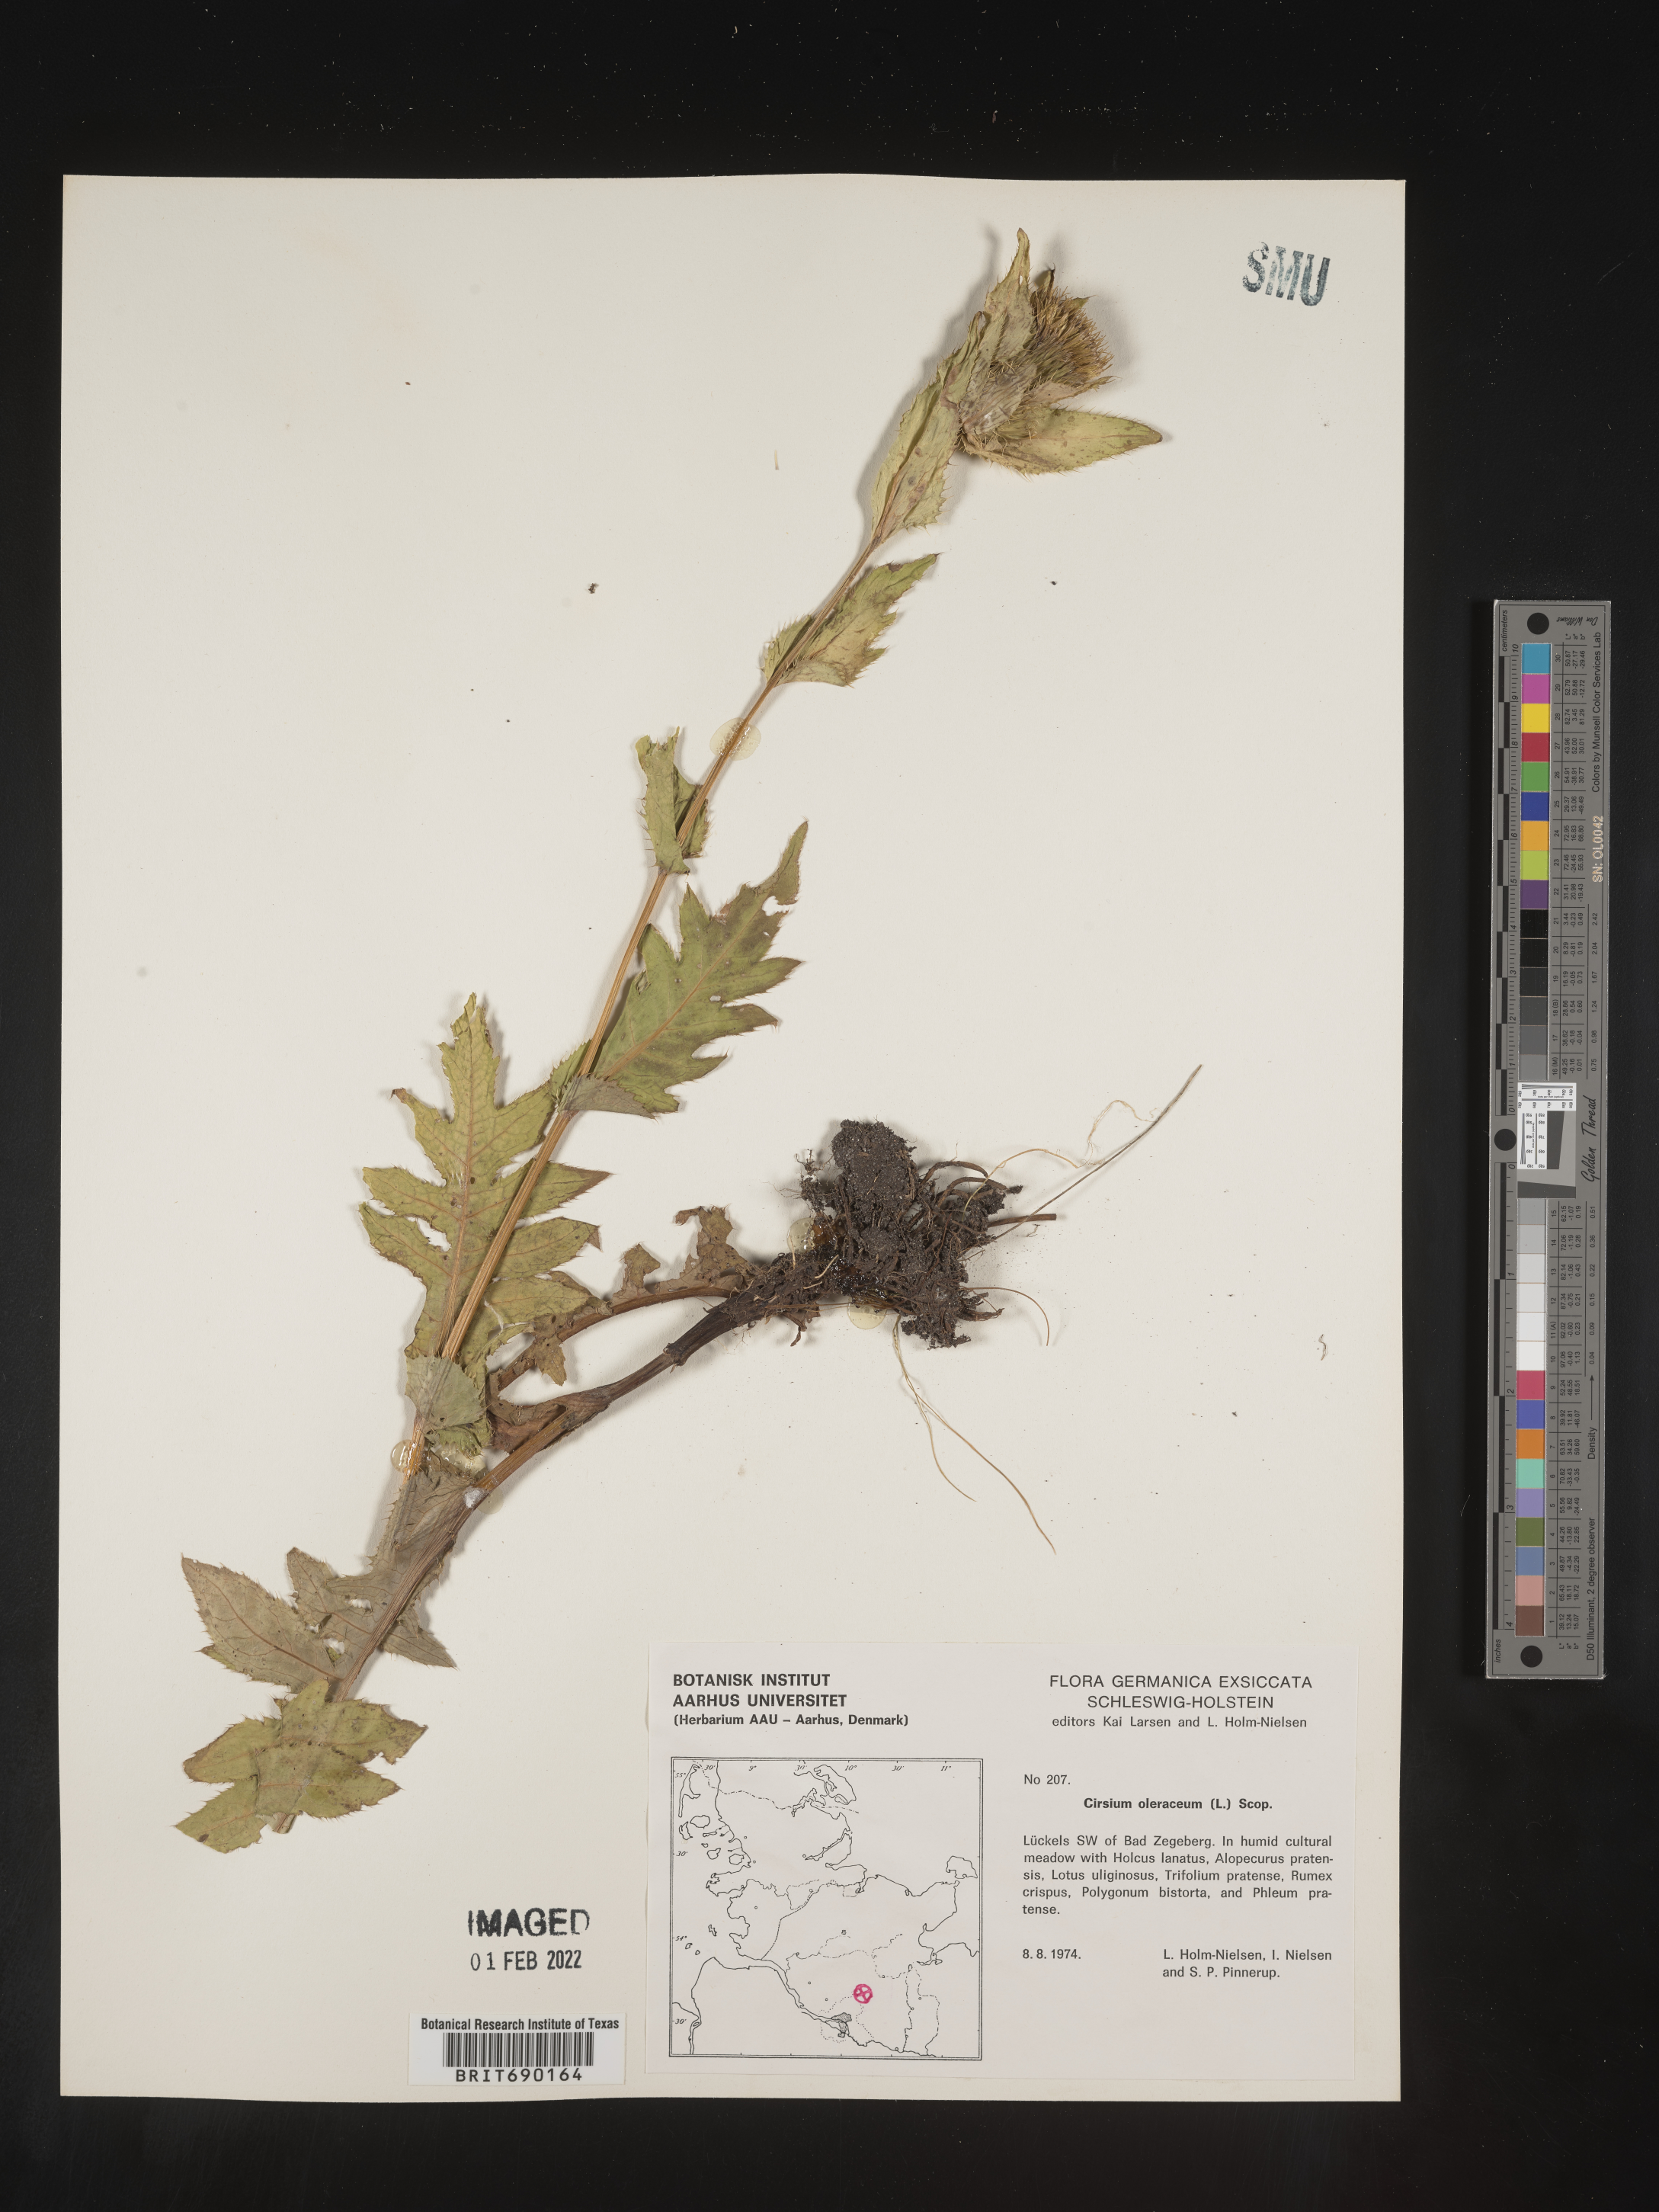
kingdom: Plantae
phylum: Tracheophyta
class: Magnoliopsida
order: Asterales
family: Asteraceae
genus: Cirsium
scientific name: Cirsium
